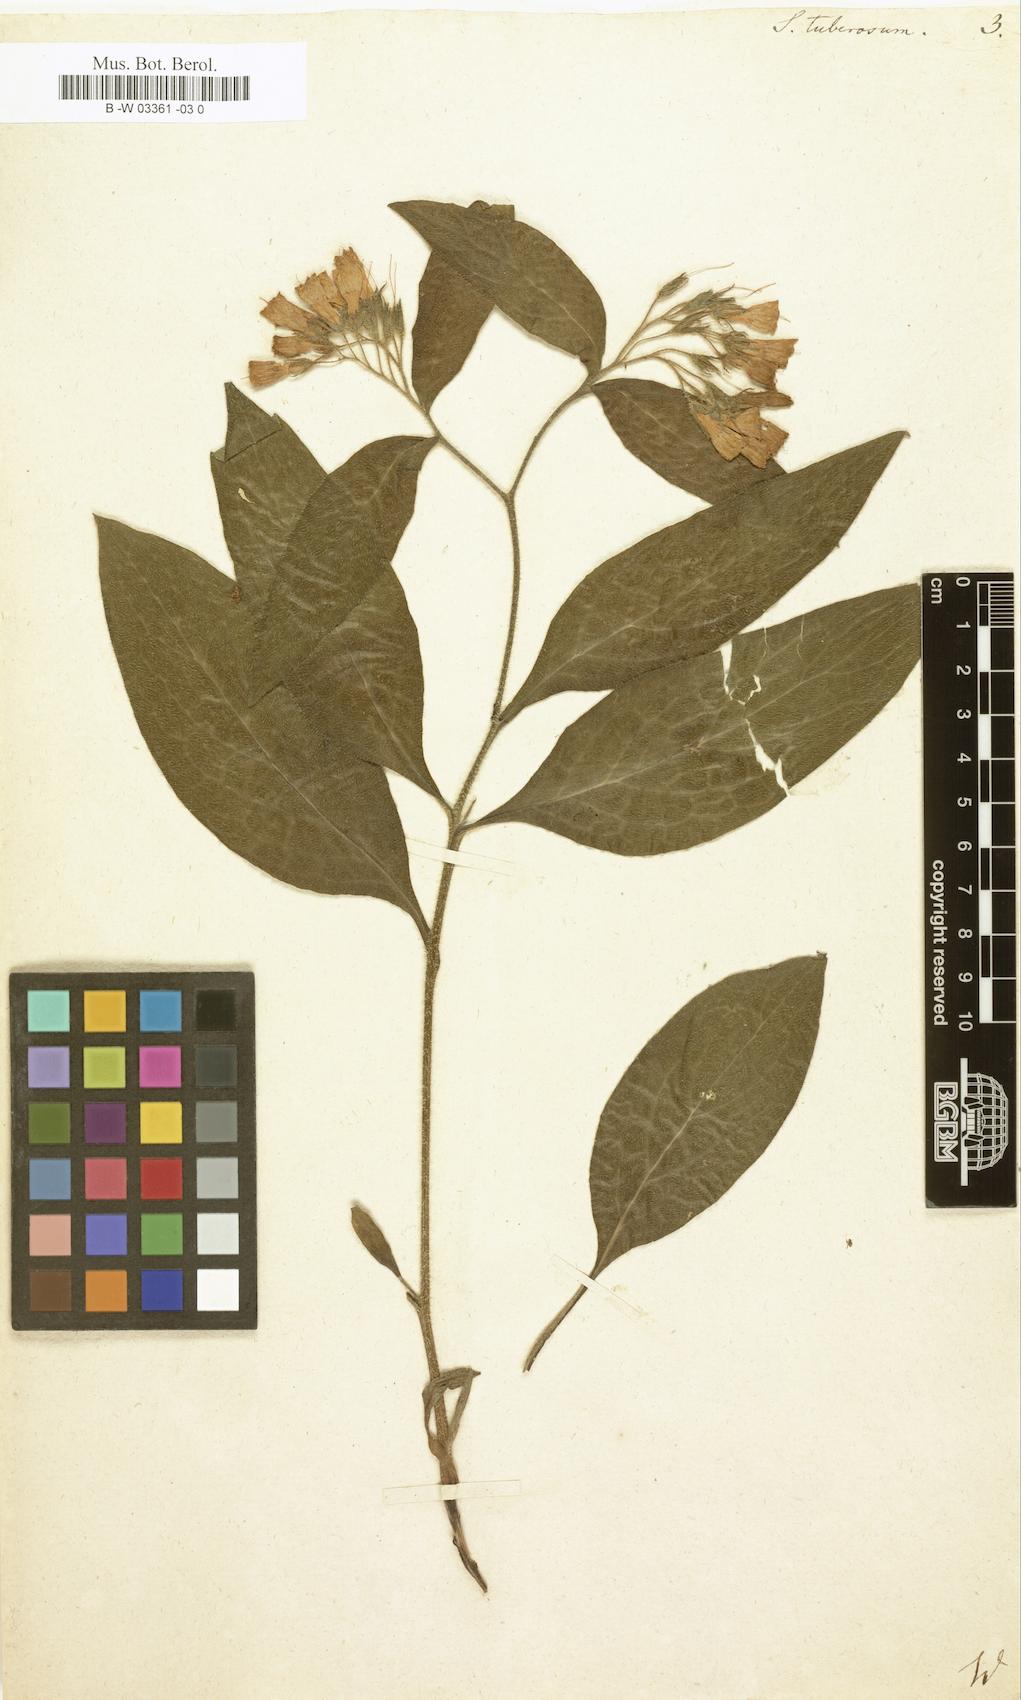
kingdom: Plantae
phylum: Tracheophyta
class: Magnoliopsida
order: Boraginales
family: Boraginaceae
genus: Symphytum
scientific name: Symphytum tuberosum
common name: Tuberous comfrey
